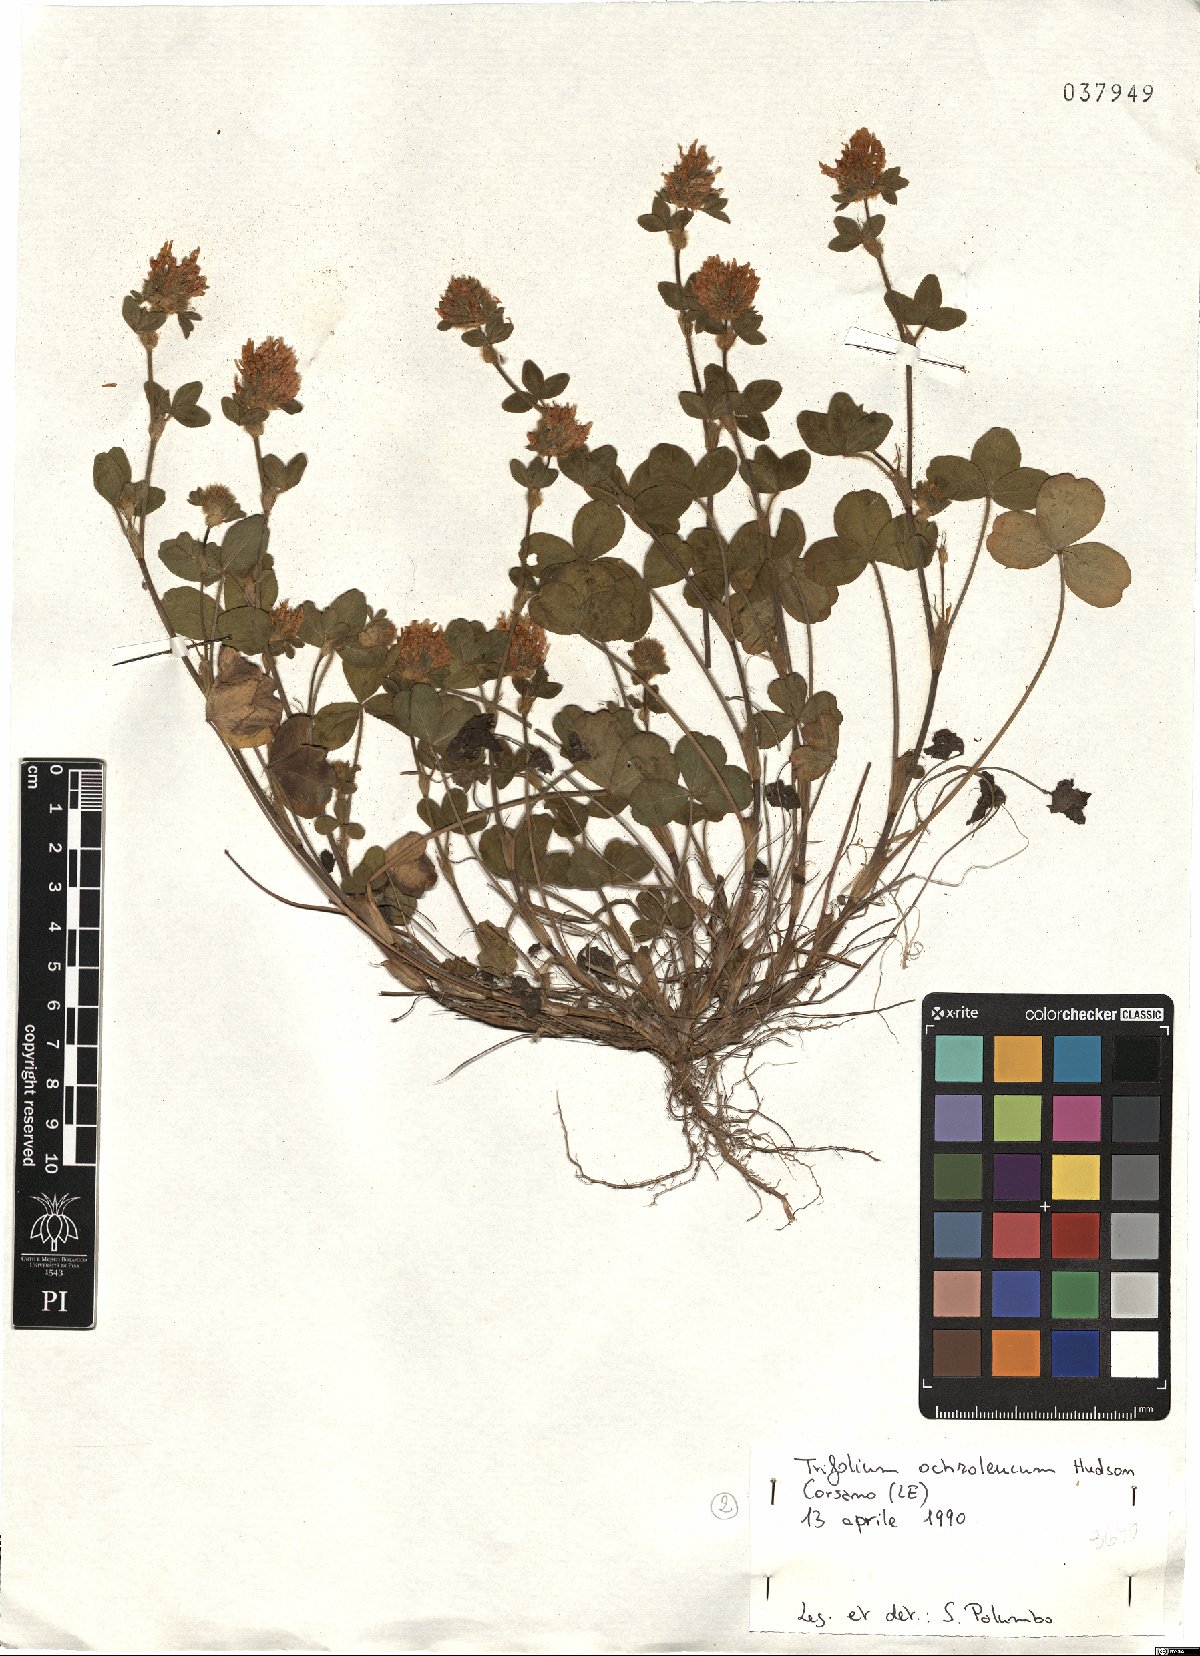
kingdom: Plantae
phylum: Tracheophyta
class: Magnoliopsida
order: Fabales
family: Fabaceae
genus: Trifolium
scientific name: Trifolium ochroleucon
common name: Sulphur clover
